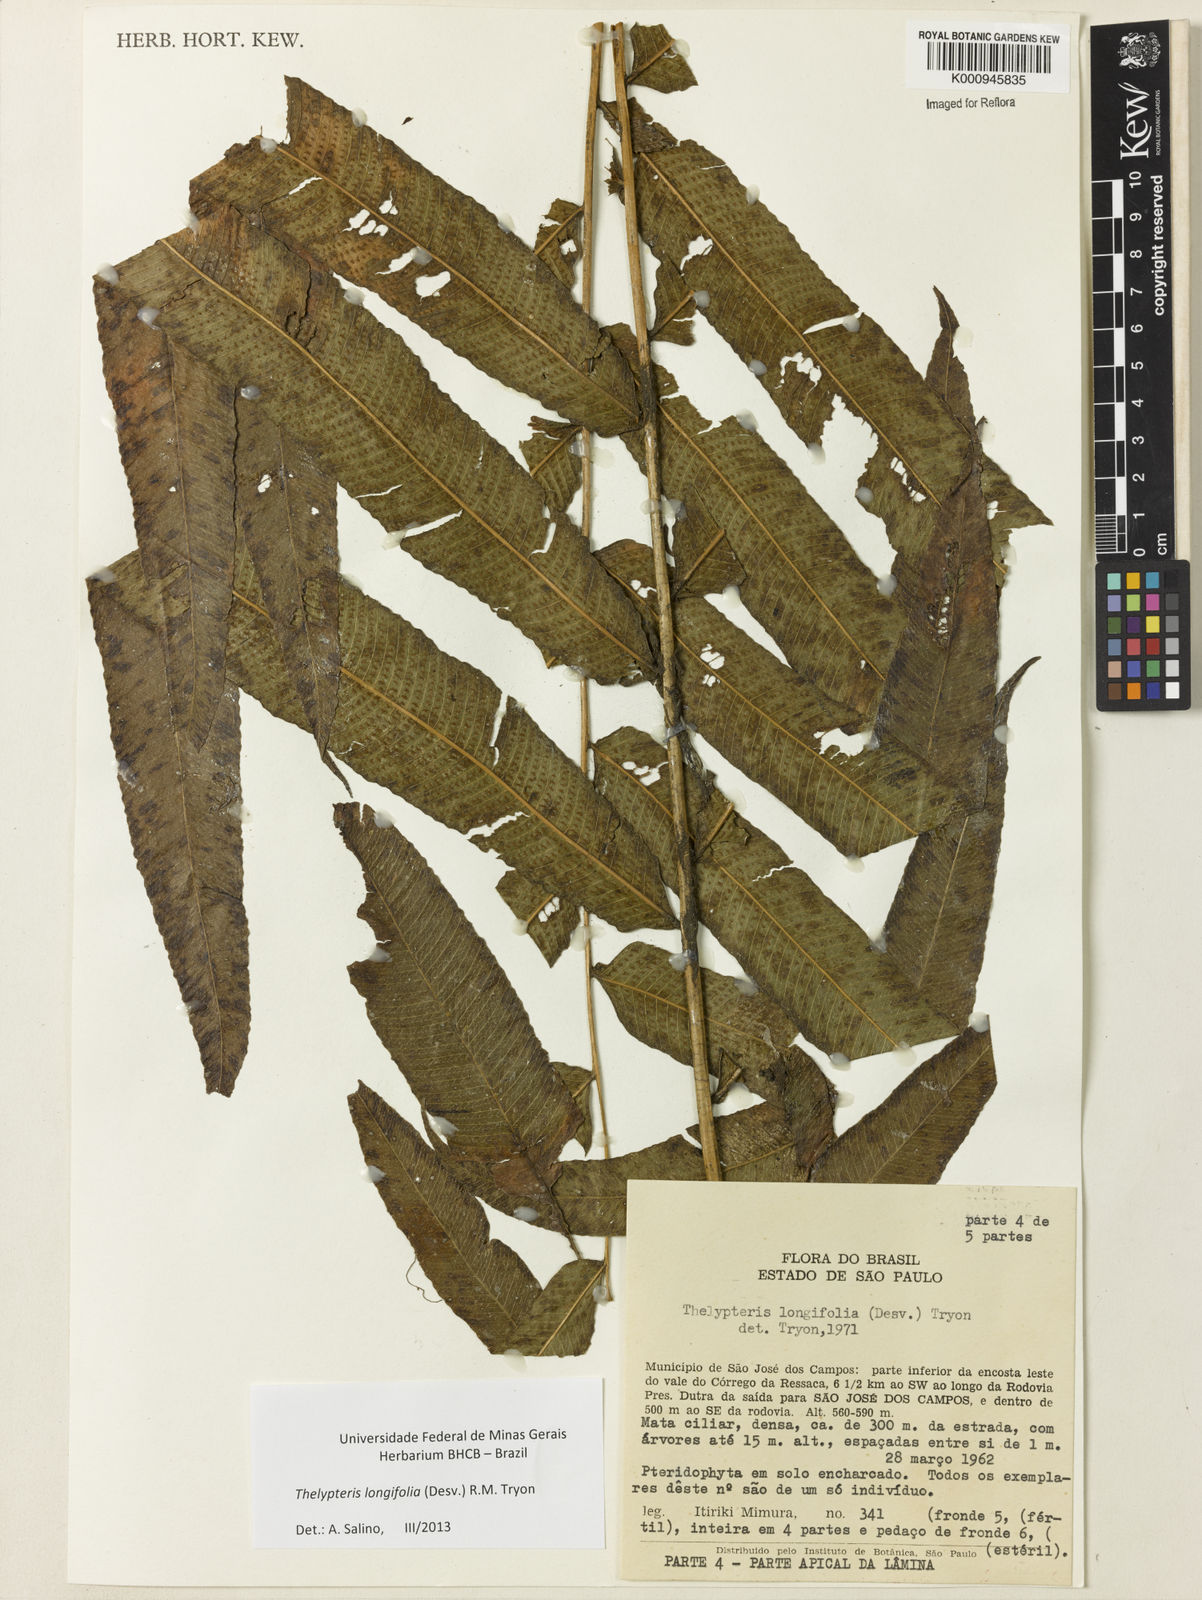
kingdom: Plantae
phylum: Tracheophyta
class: Polypodiopsida
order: Polypodiales
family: Thelypteridaceae
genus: Meniscium
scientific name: Meniscium longifolium
